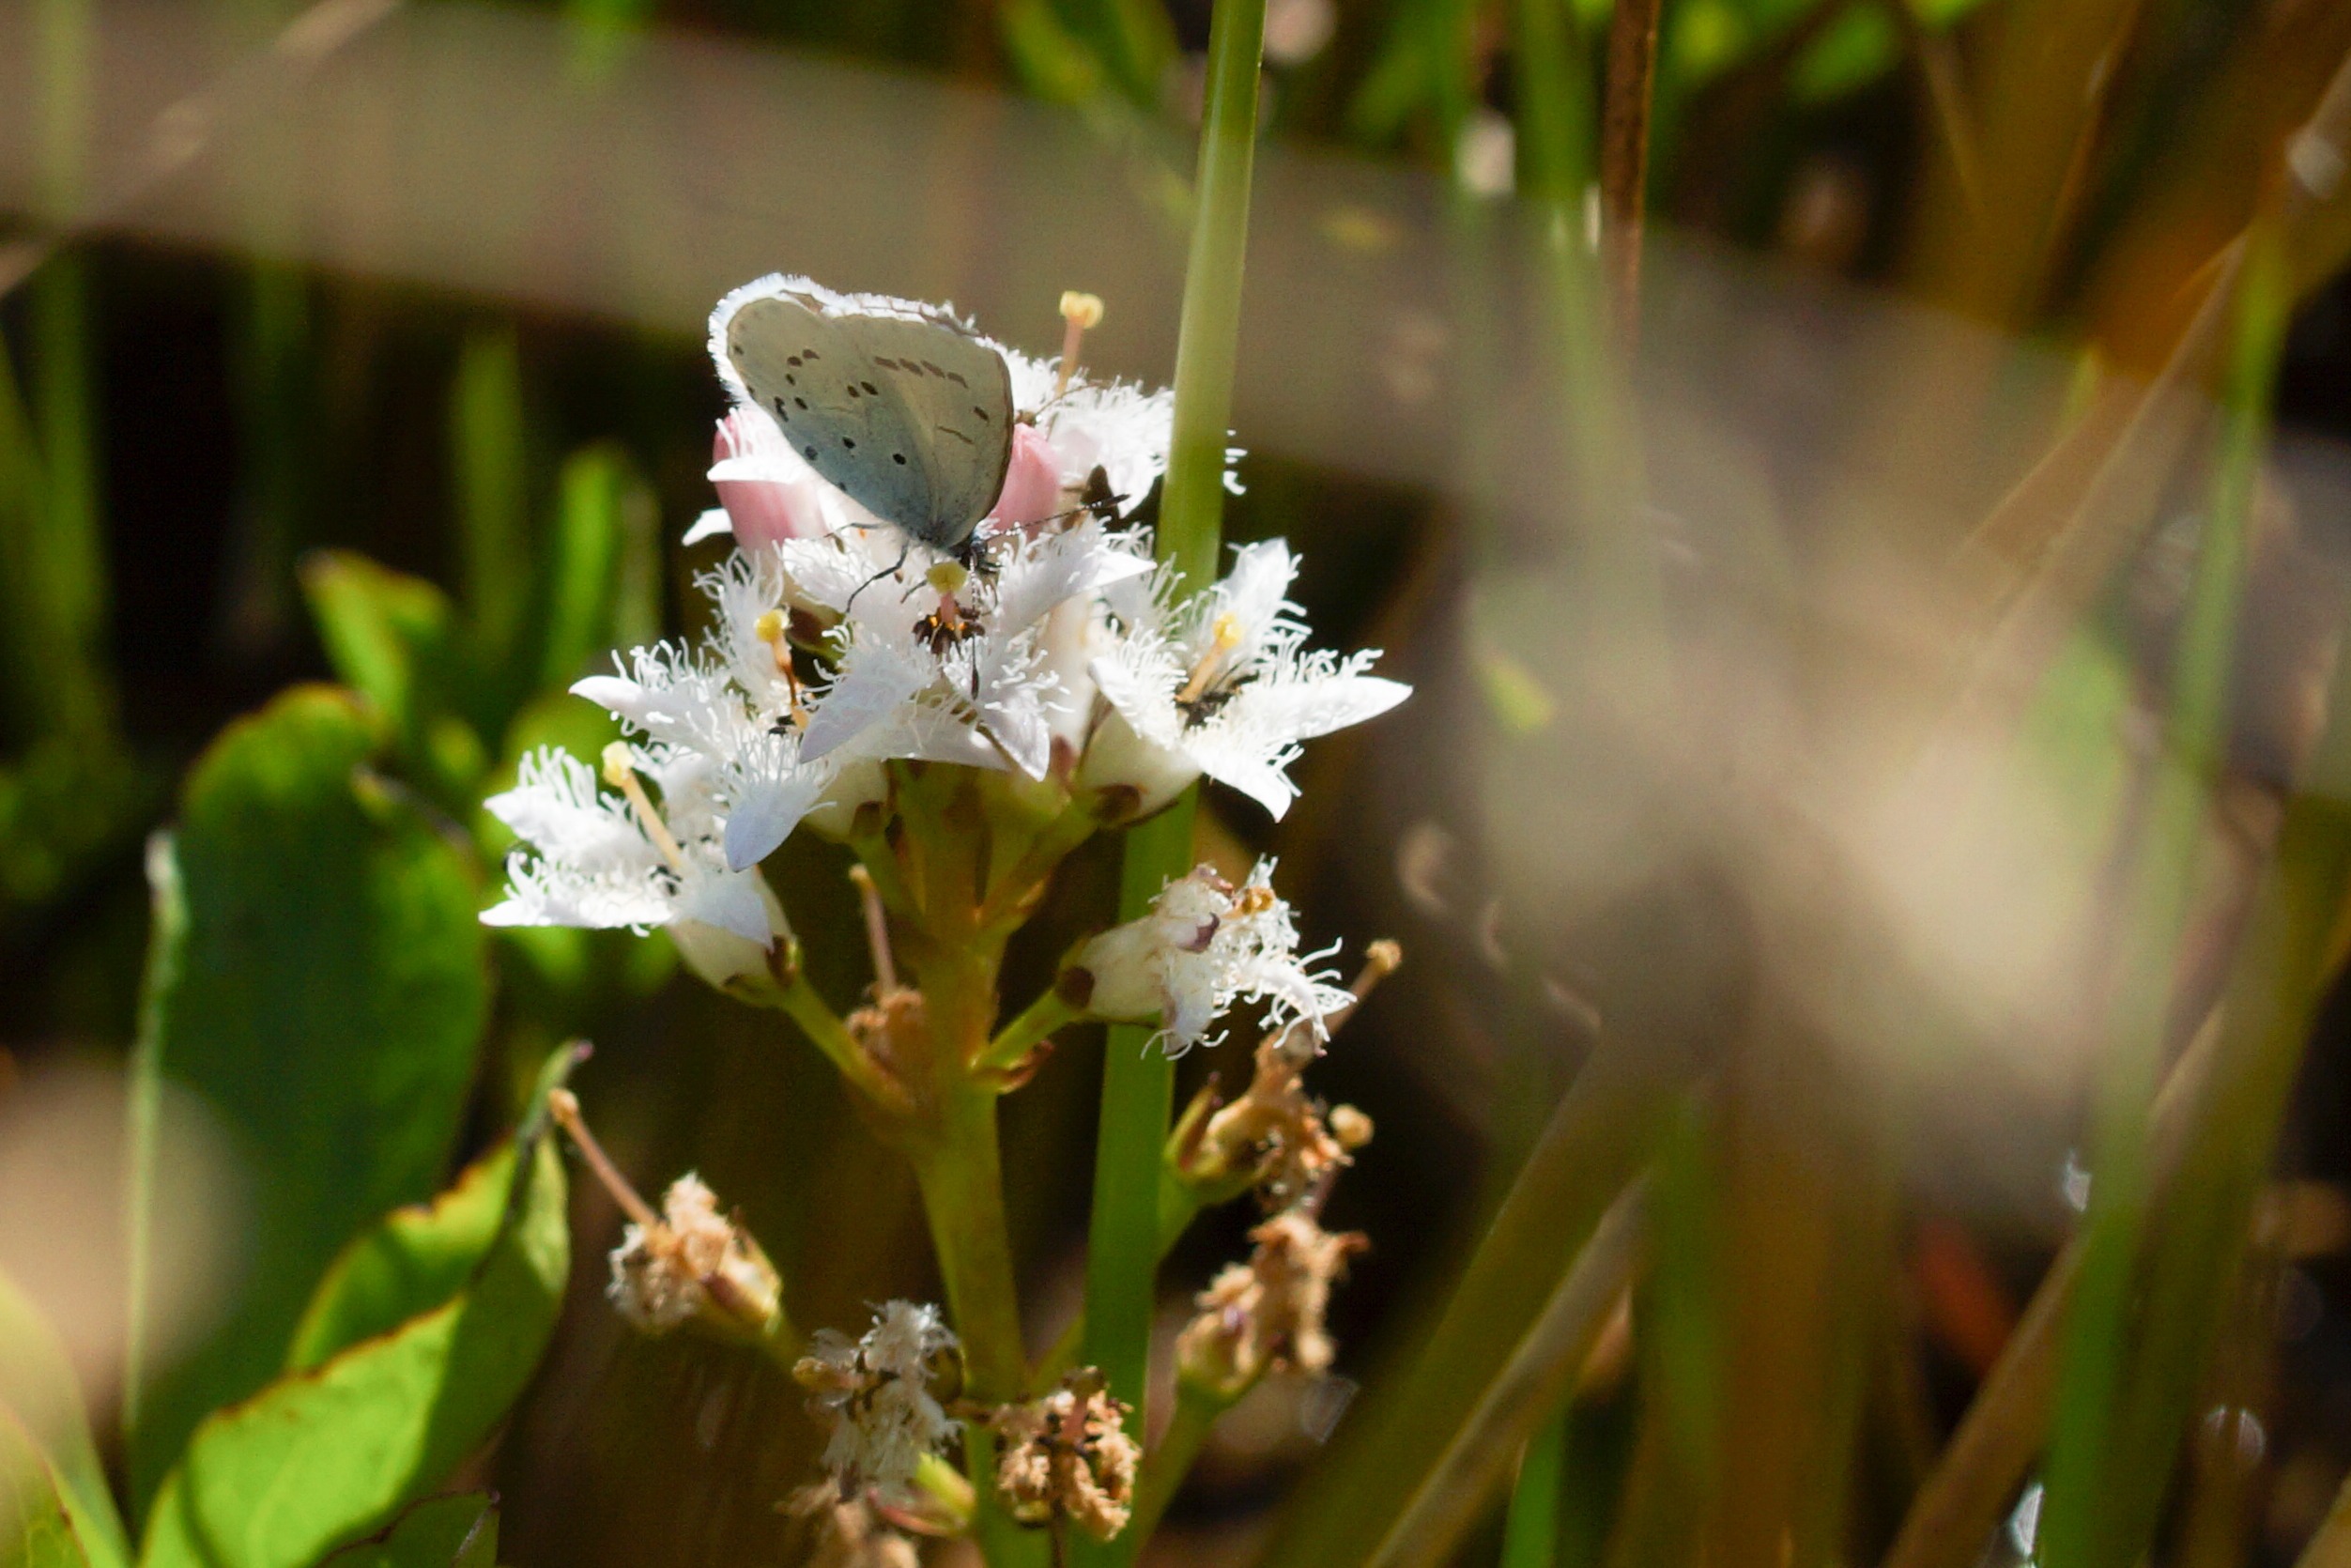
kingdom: Plantae
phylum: Tracheophyta
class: Magnoliopsida
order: Asterales
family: Menyanthaceae
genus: Menyanthes
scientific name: Menyanthes trifoliata
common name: Bukkeblad
